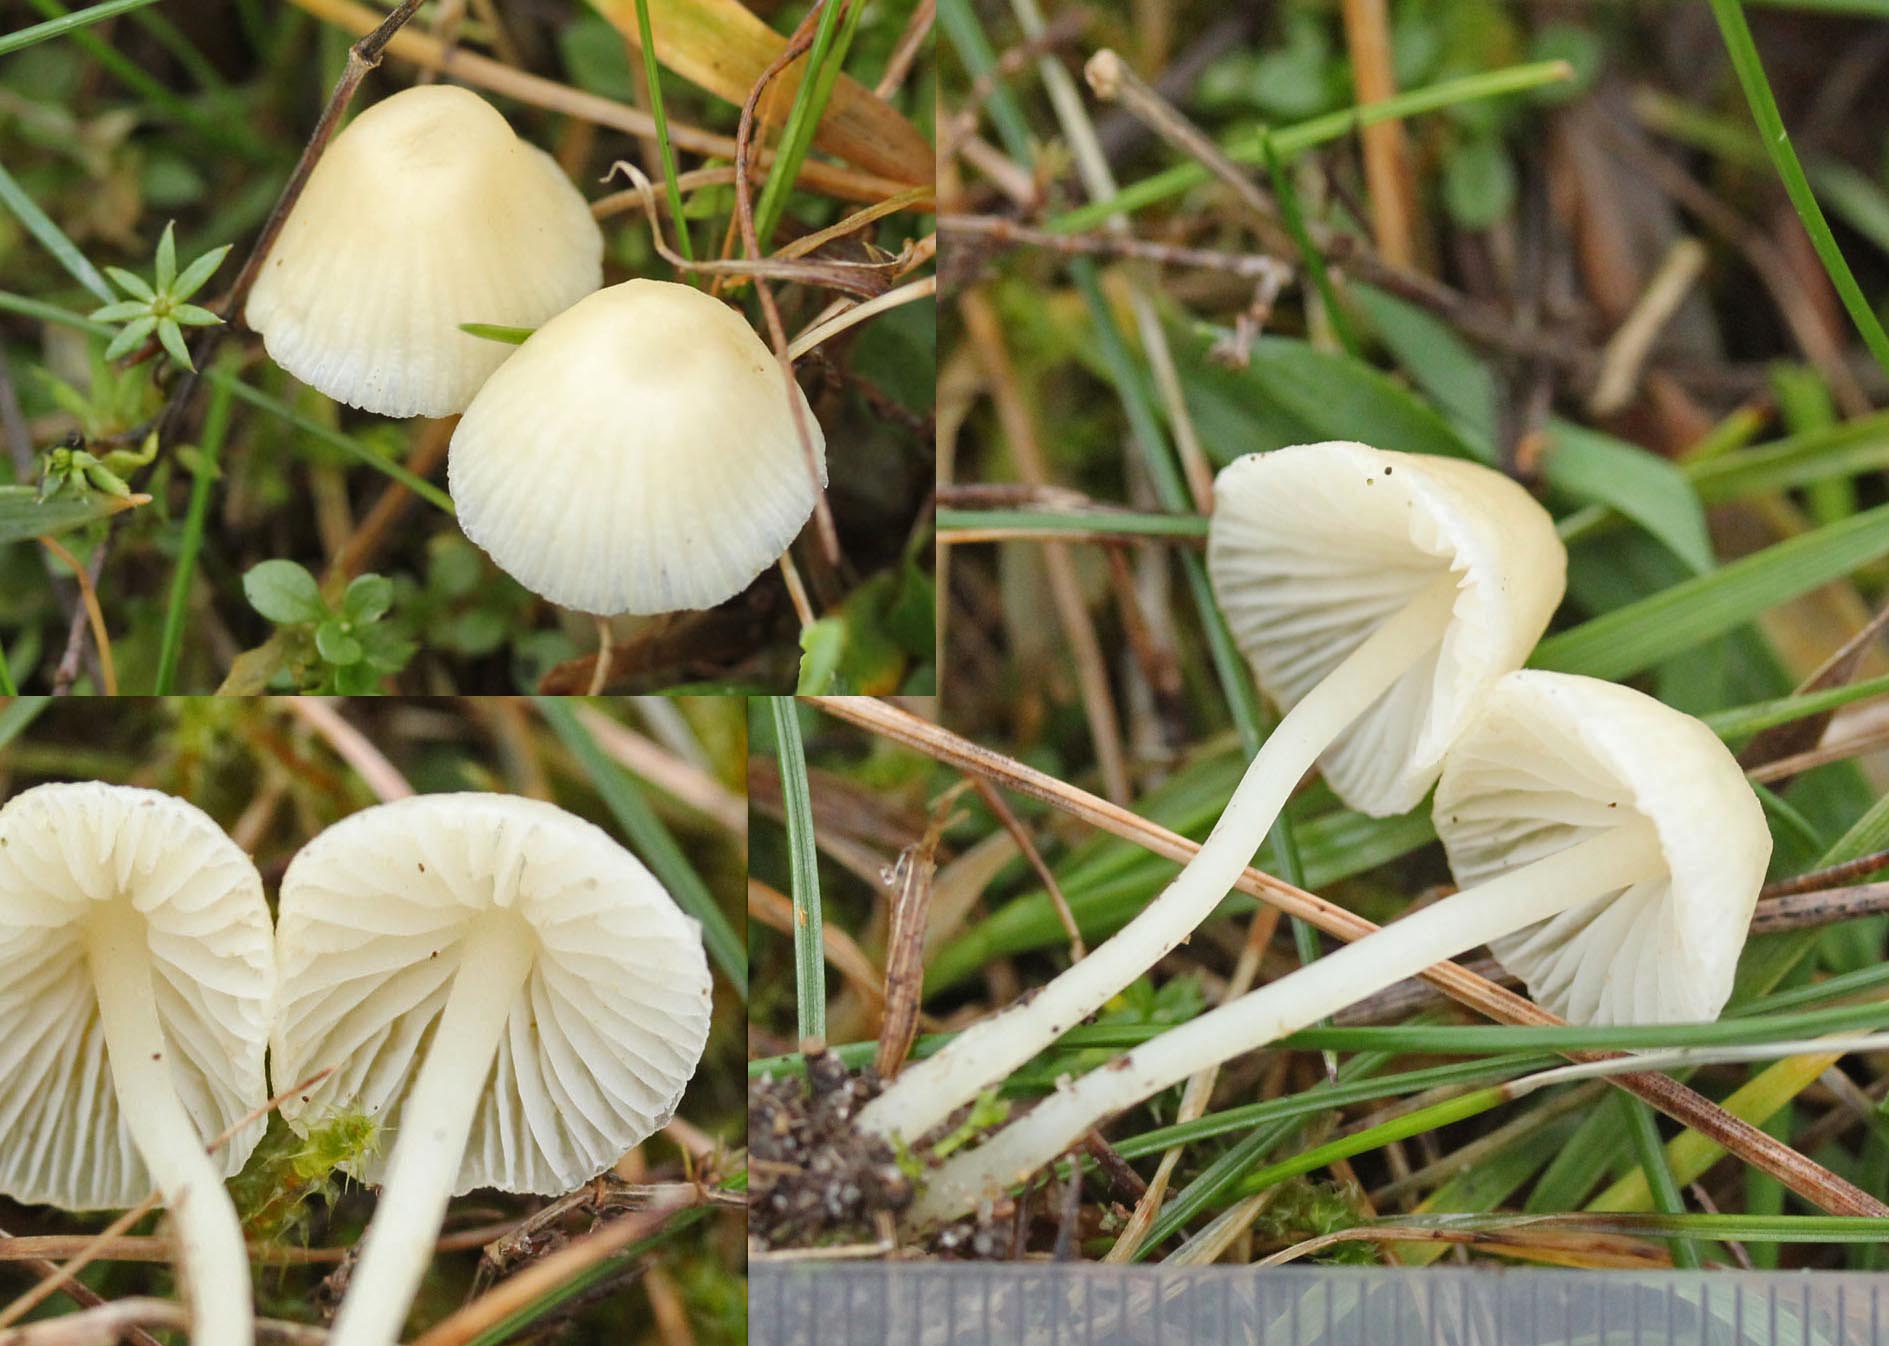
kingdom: Fungi
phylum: Basidiomycota
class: Agaricomycetes
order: Agaricales
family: Mycenaceae
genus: Atheniella
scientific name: Atheniella flavoalba
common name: gulhvid huesvamp
